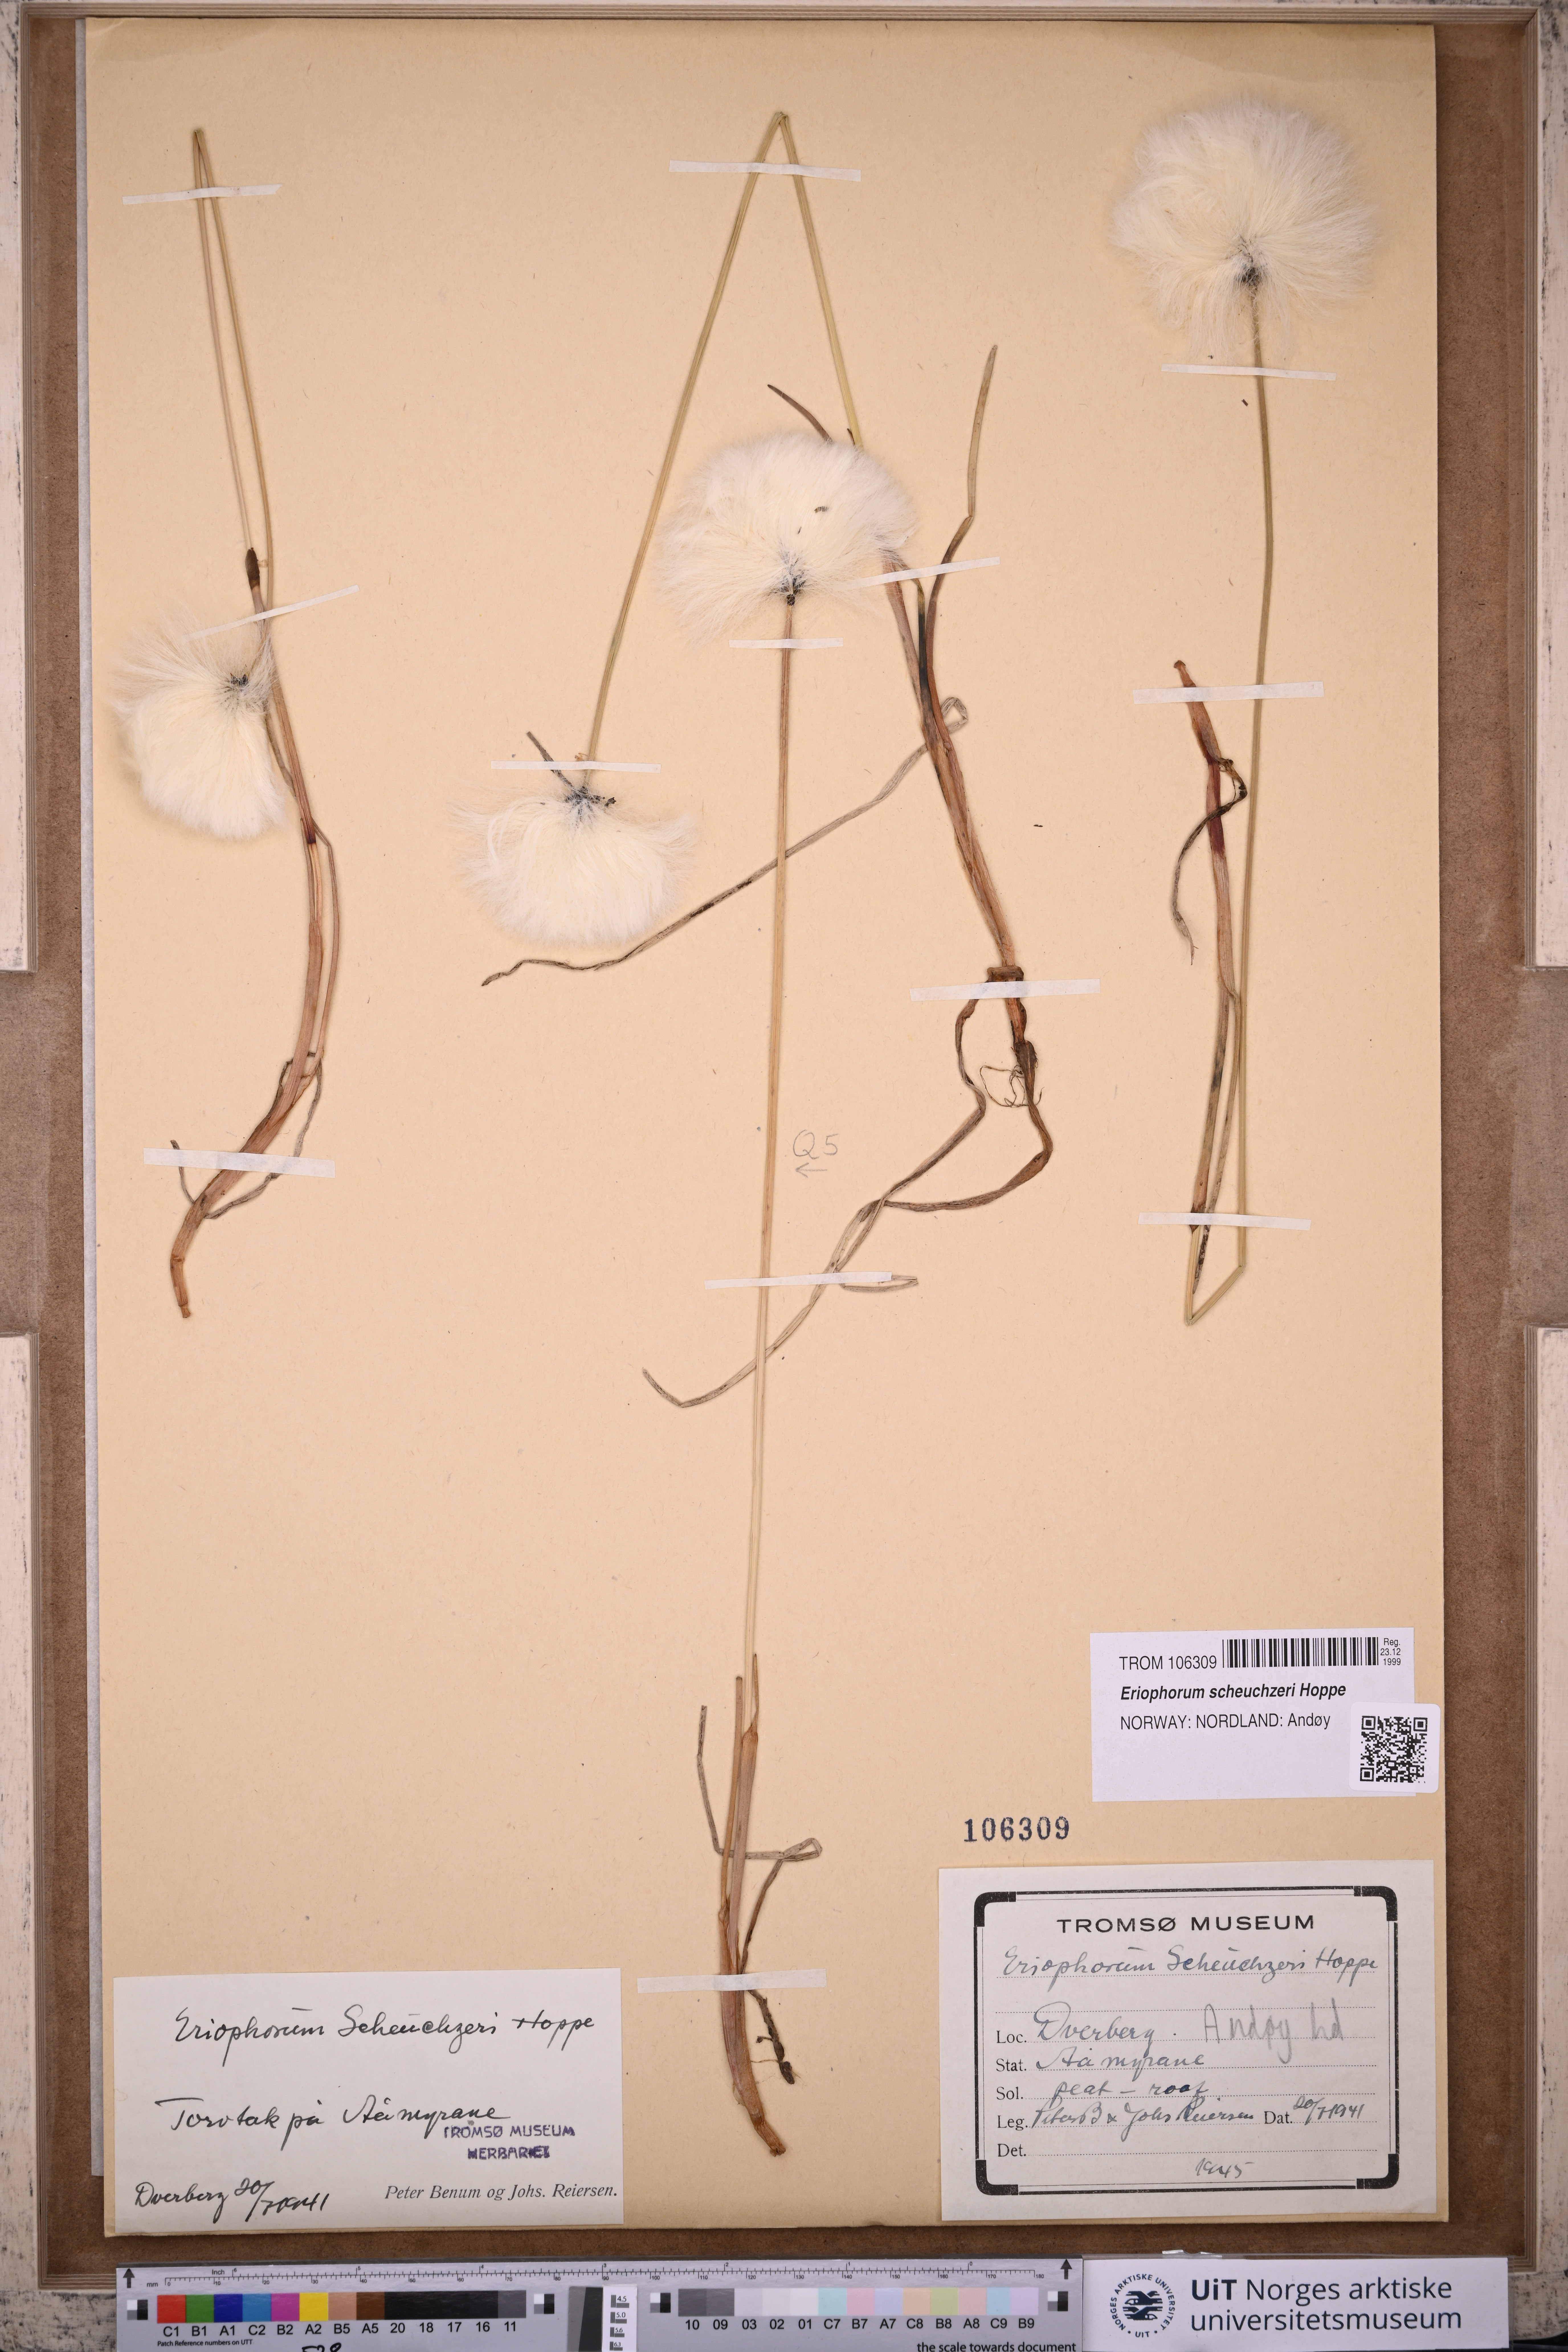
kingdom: Plantae
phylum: Tracheophyta
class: Liliopsida
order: Poales
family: Cyperaceae
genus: Eriophorum
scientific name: Eriophorum scheuchzeri
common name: Scheuchzer's cottongrass
